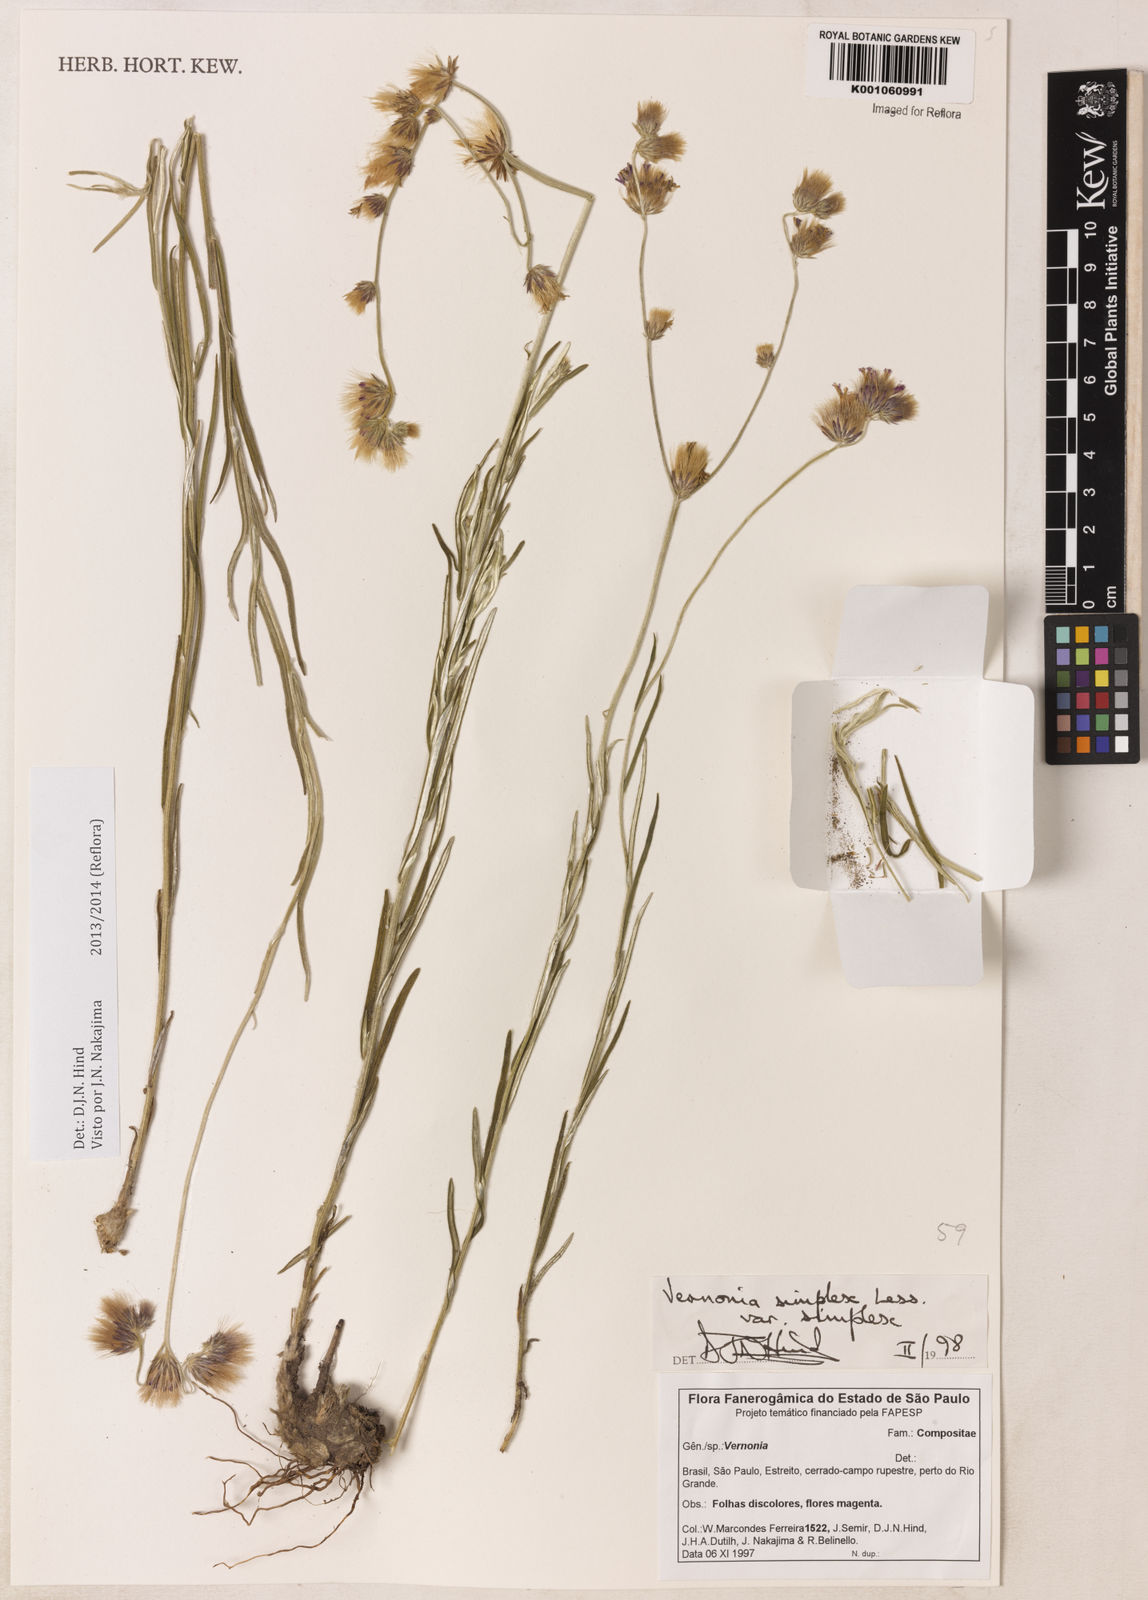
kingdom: Plantae
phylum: Tracheophyta
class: Magnoliopsida
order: Asterales
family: Asteraceae
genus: Chrysolaena
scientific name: Chrysolaena simplex
